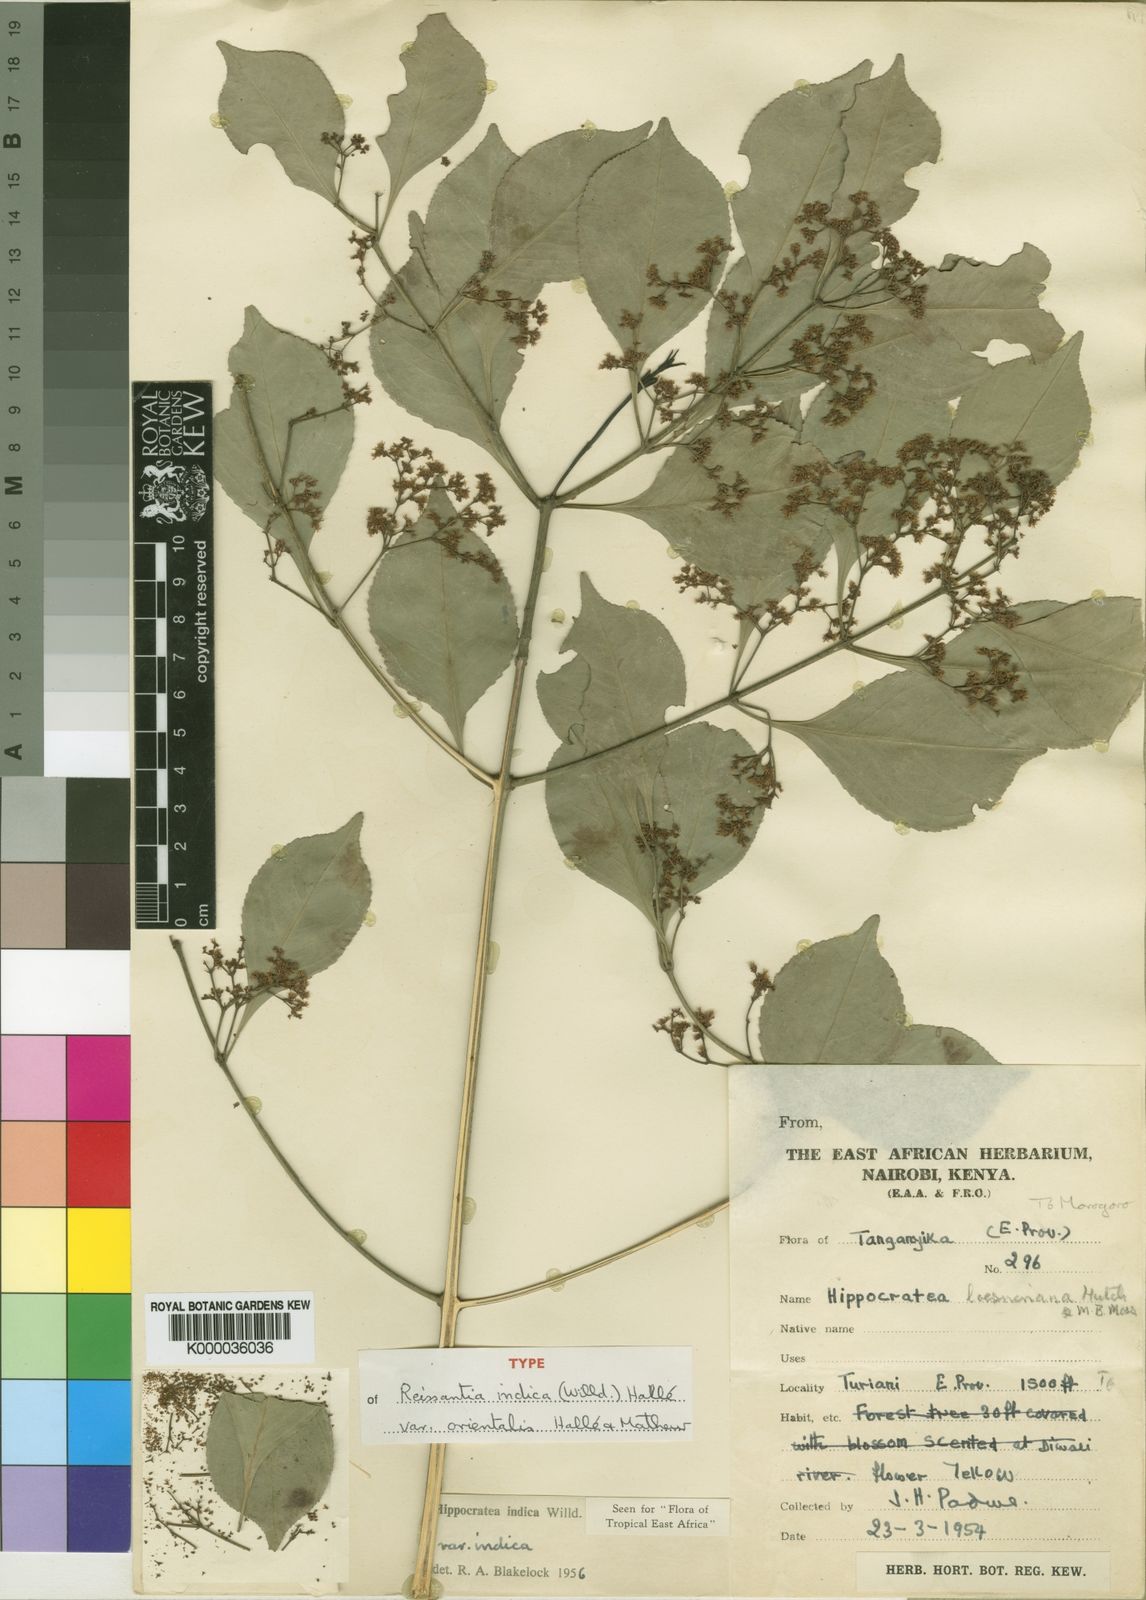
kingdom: Plantae
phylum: Tracheophyta
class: Magnoliopsida
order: Celastrales
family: Celastraceae
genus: Reissantia
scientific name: Reissantia
